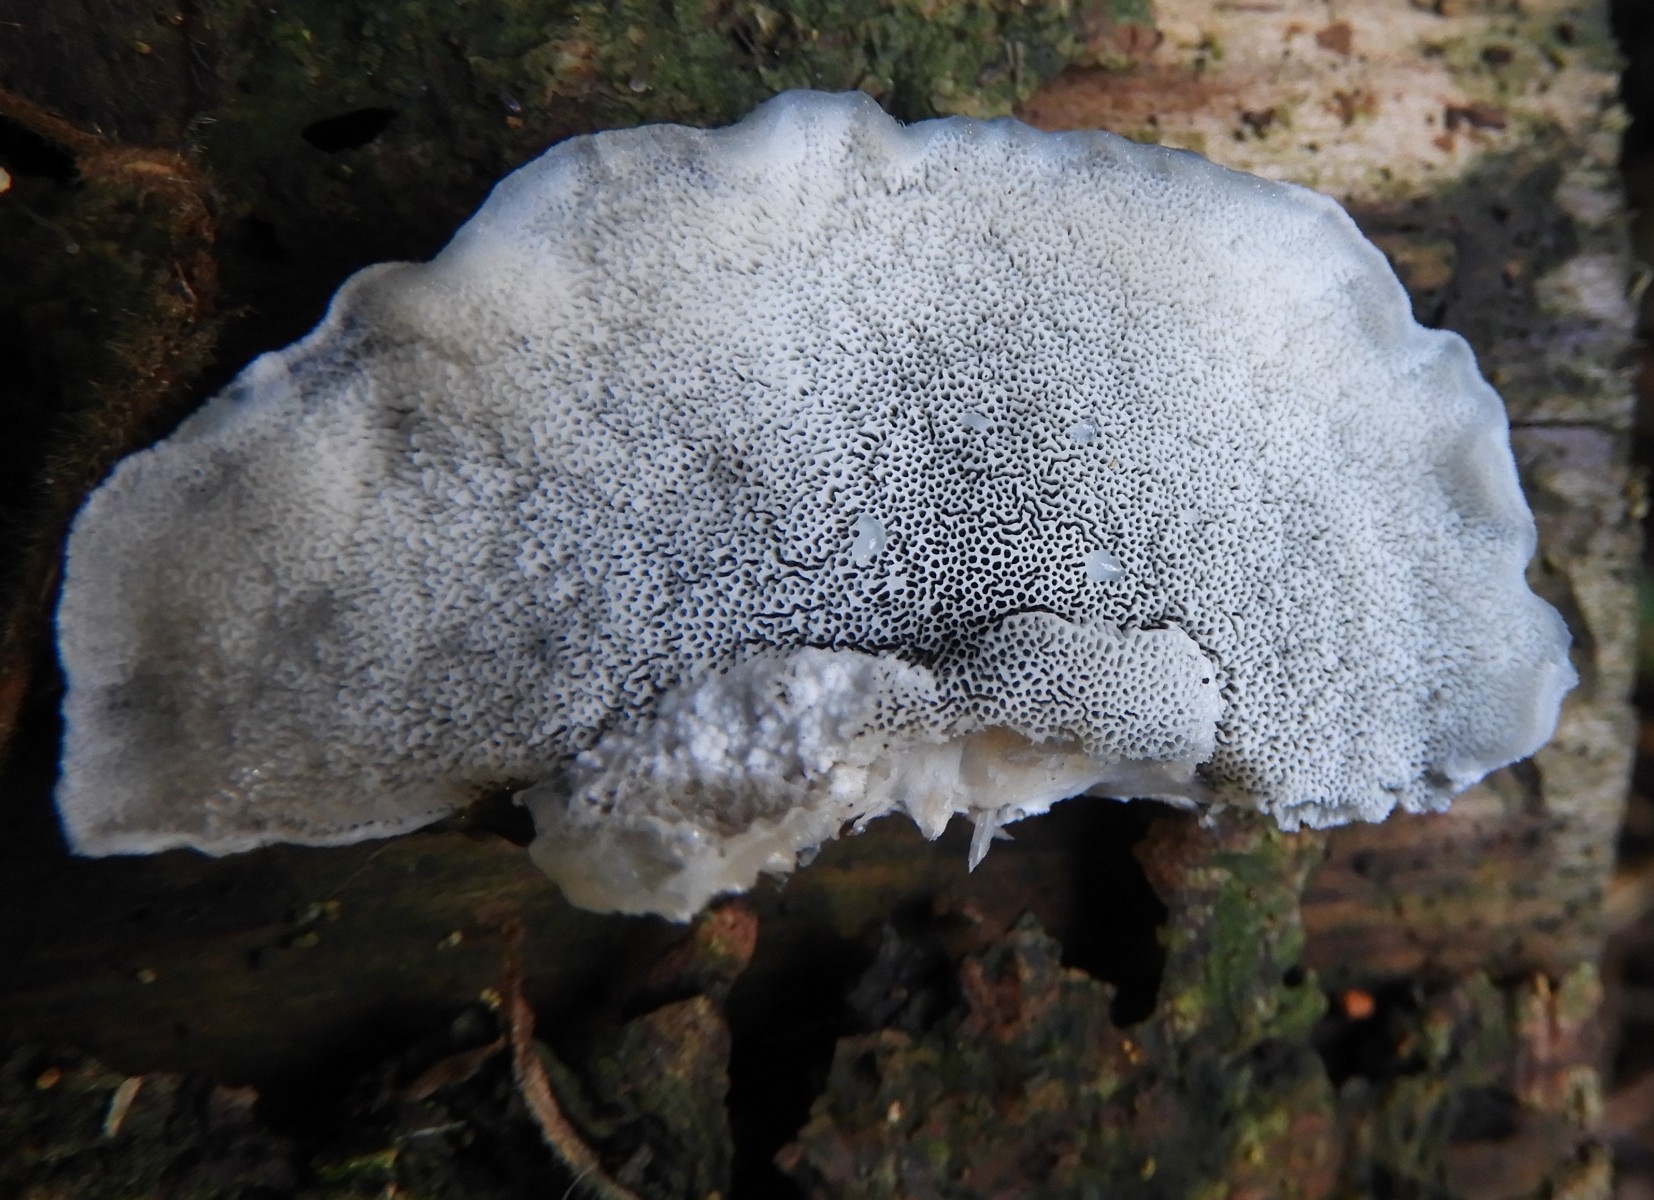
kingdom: Fungi
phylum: Basidiomycota
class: Agaricomycetes
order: Polyporales
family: Polyporaceae
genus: Cyanosporus
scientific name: Cyanosporus caesius
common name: blålig kødporesvamp
